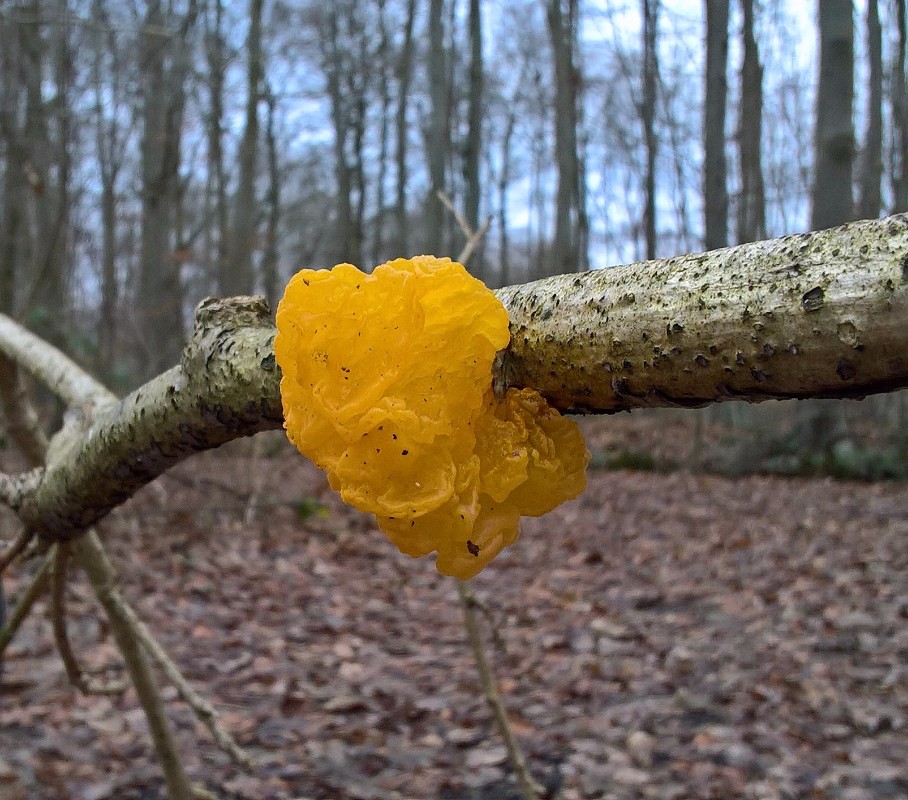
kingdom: Fungi
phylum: Basidiomycota
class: Tremellomycetes
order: Tremellales
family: Tremellaceae
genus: Tremella
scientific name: Tremella mesenterica
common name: gul bævresvamp
